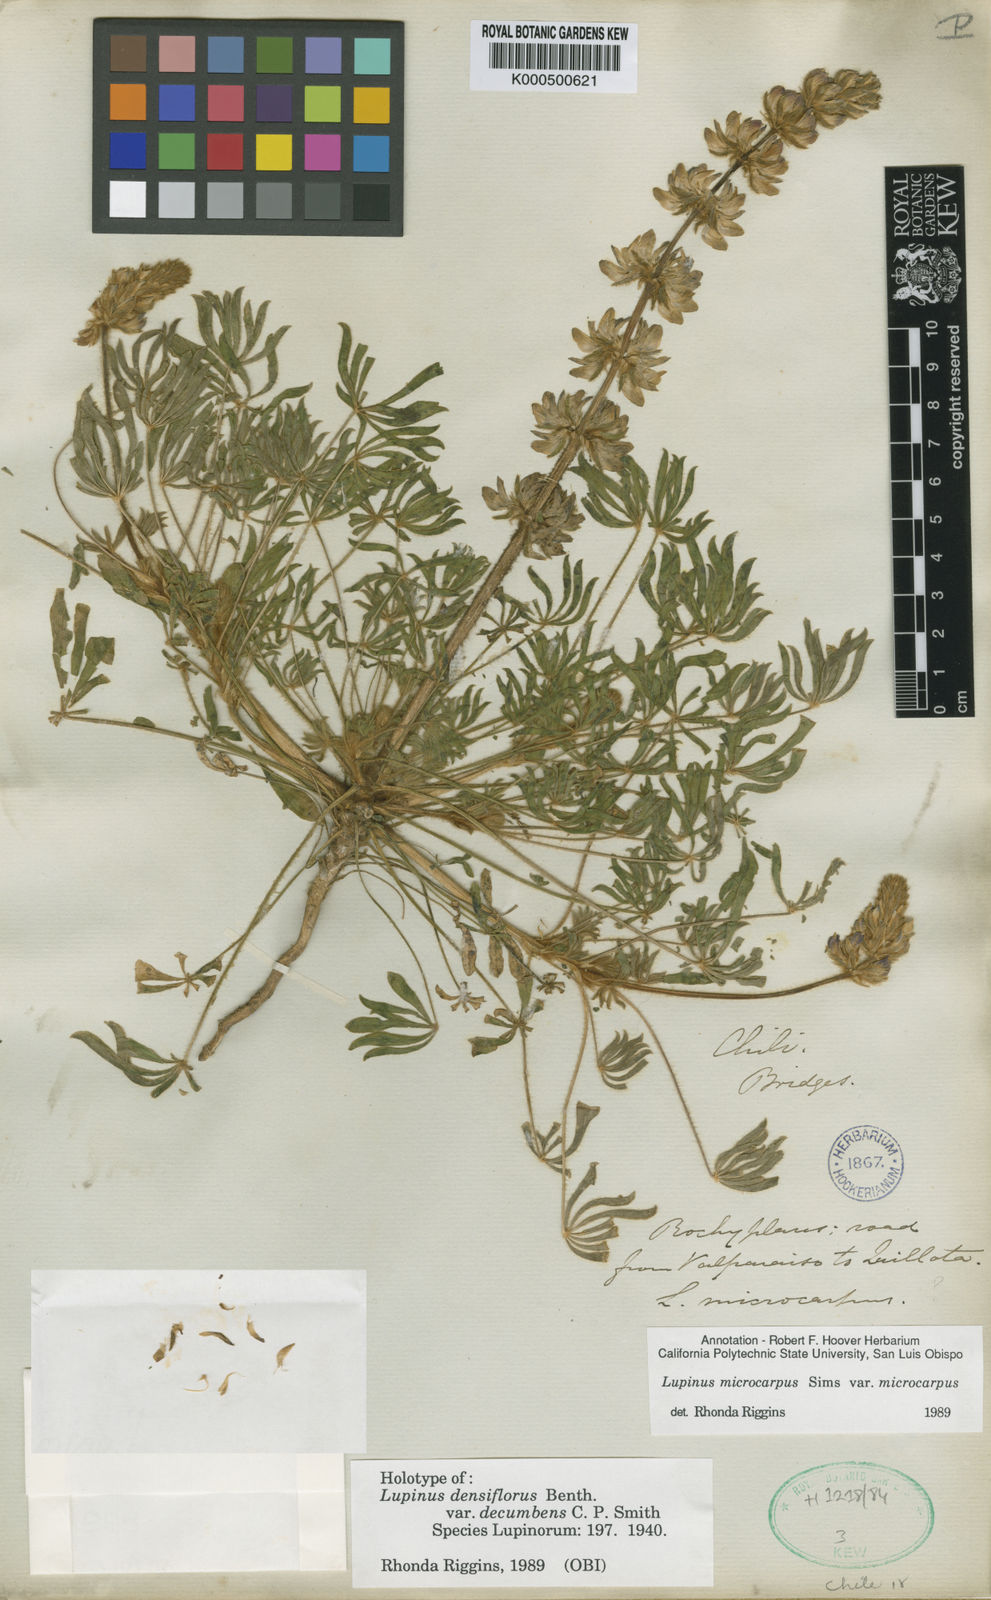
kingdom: Plantae
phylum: Tracheophyta
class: Magnoliopsida
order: Fabales
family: Fabaceae
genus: Lupinus
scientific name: Lupinus microcarpus
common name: Chick lupine
